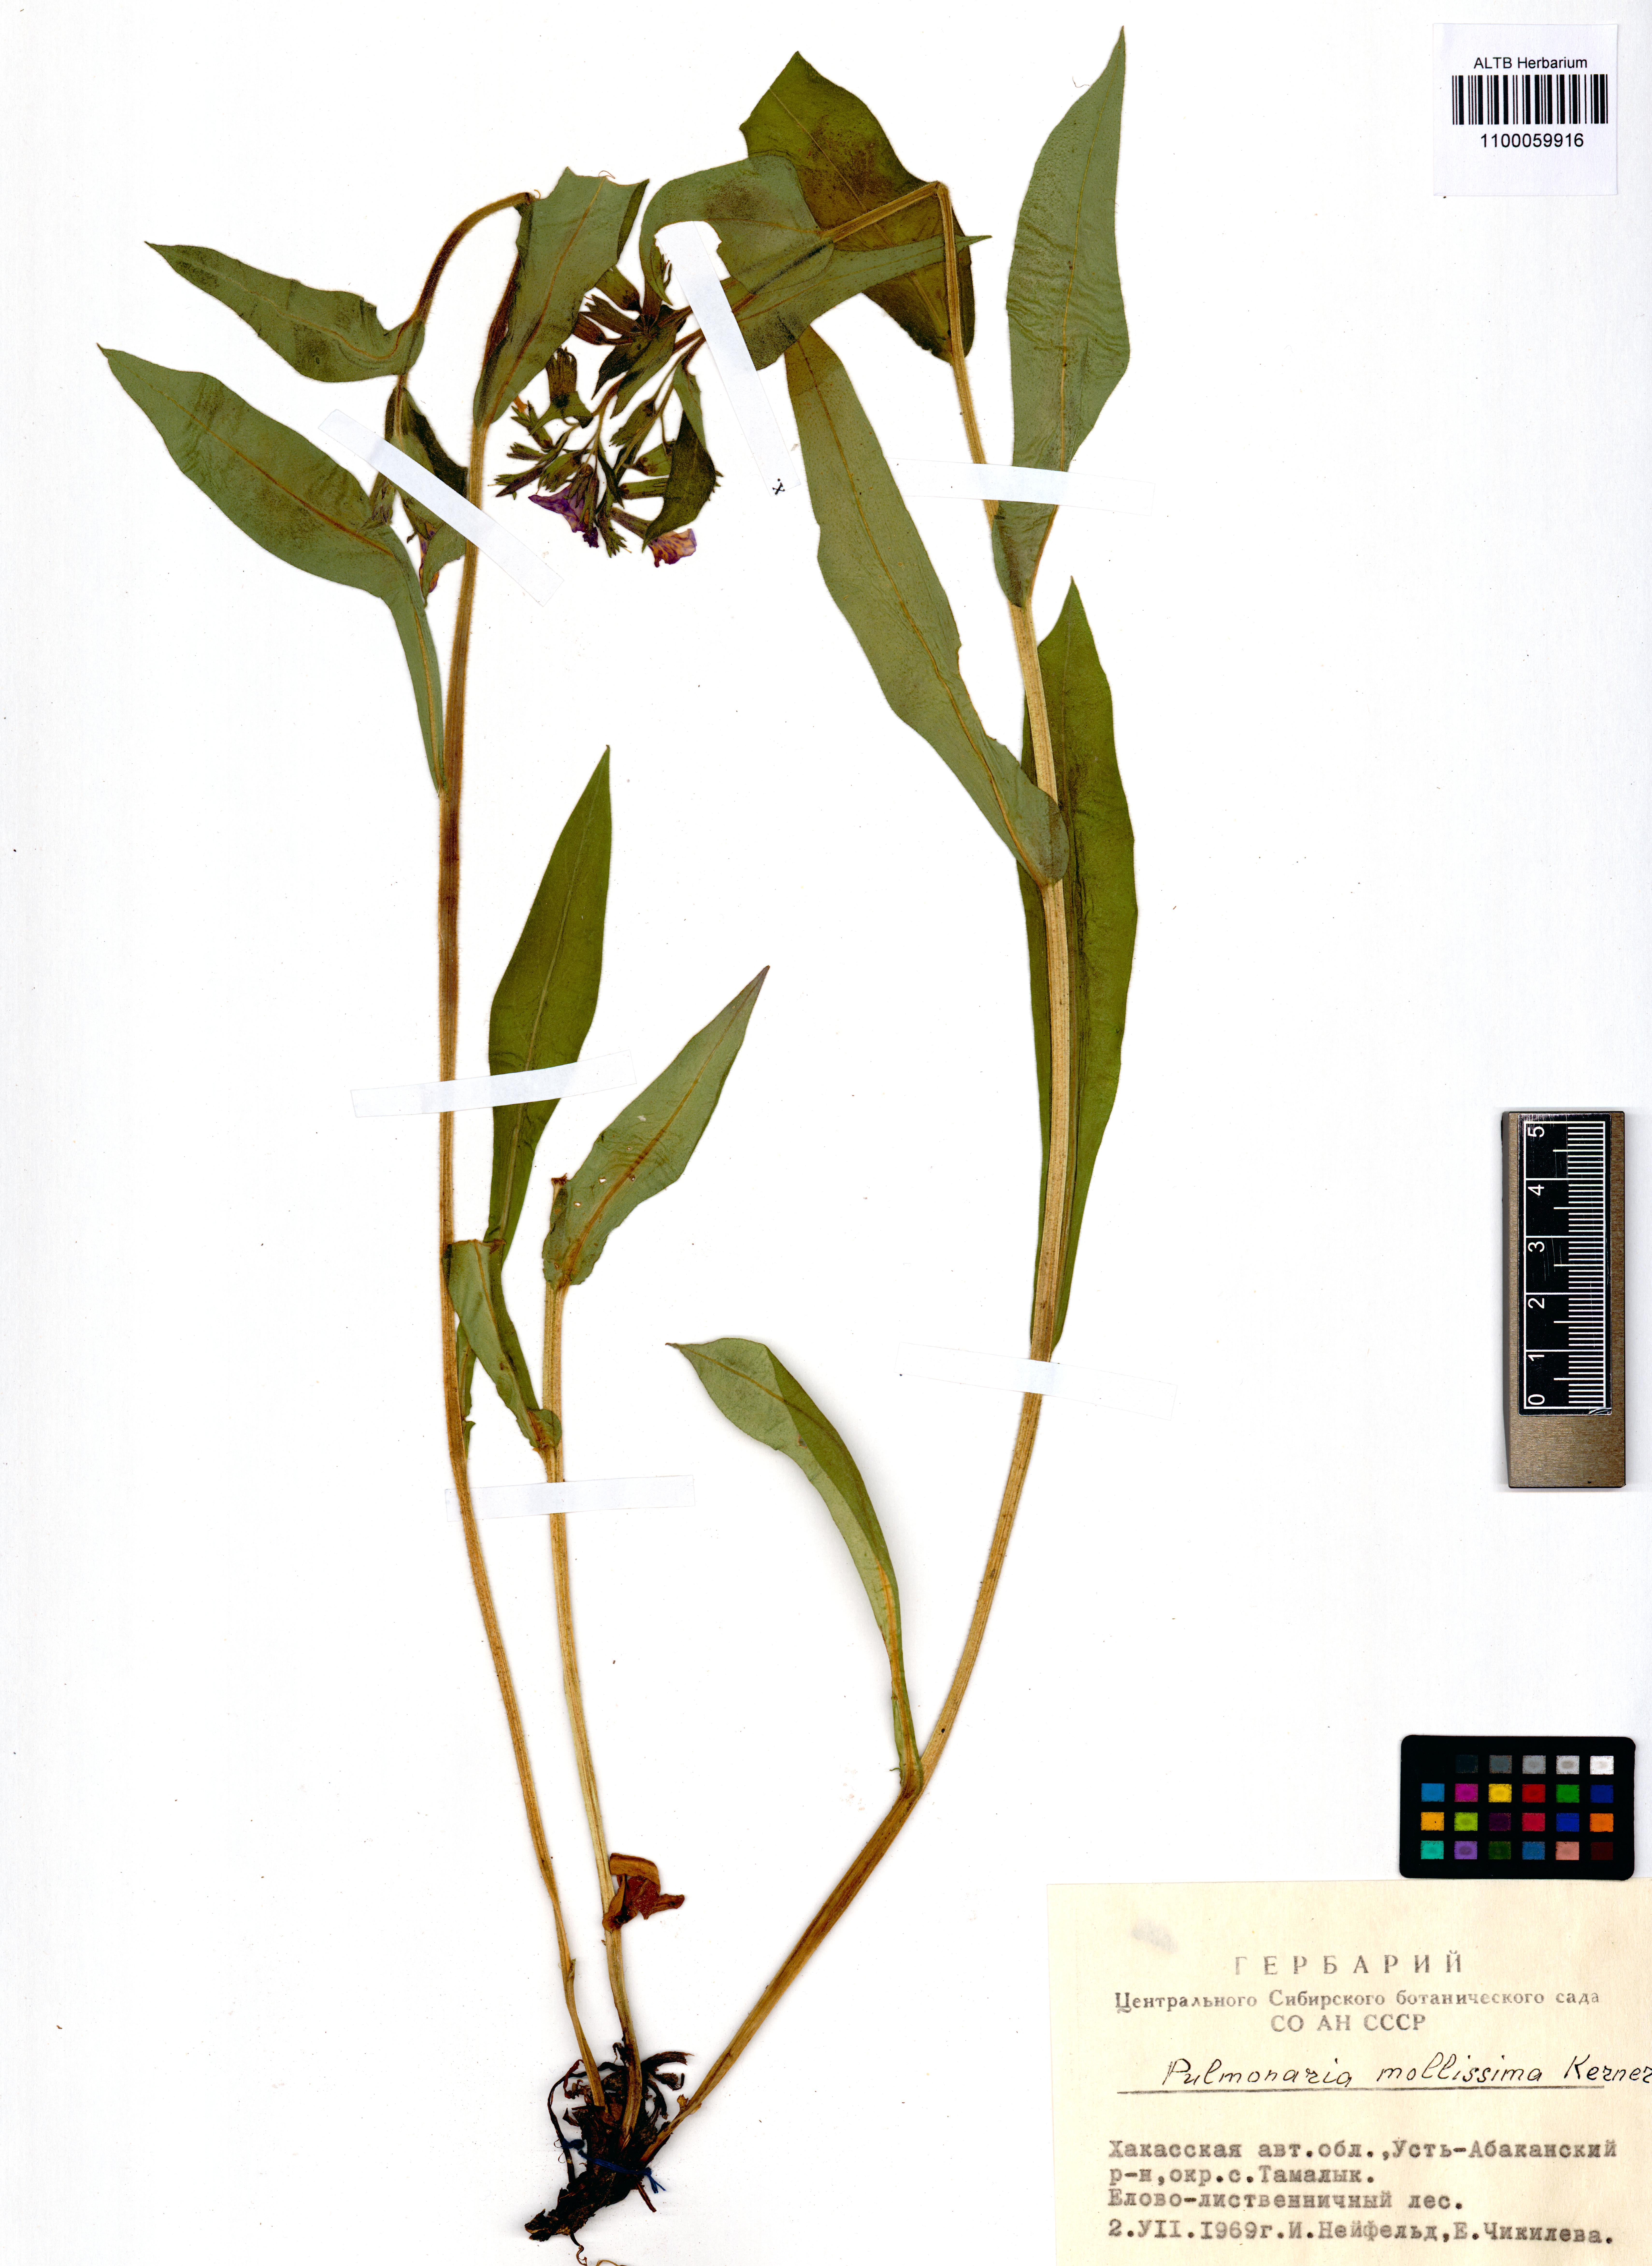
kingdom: Plantae
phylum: Tracheophyta
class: Magnoliopsida
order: Boraginales
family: Boraginaceae
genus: Pulmonaria
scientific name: Pulmonaria mollis
